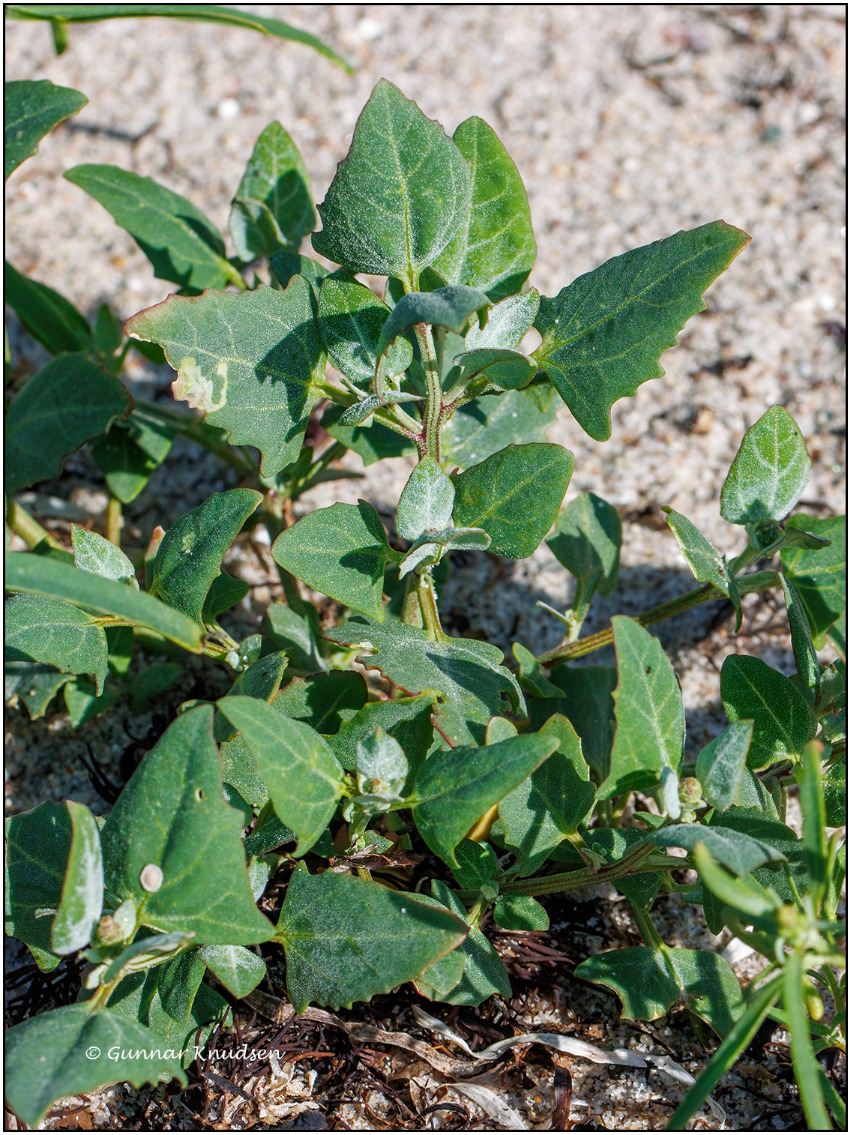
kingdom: Plantae
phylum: Tracheophyta
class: Magnoliopsida
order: Caryophyllales
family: Amaranthaceae
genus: Atriplex
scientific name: Atriplex prostrata
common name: Spyd-mælde
